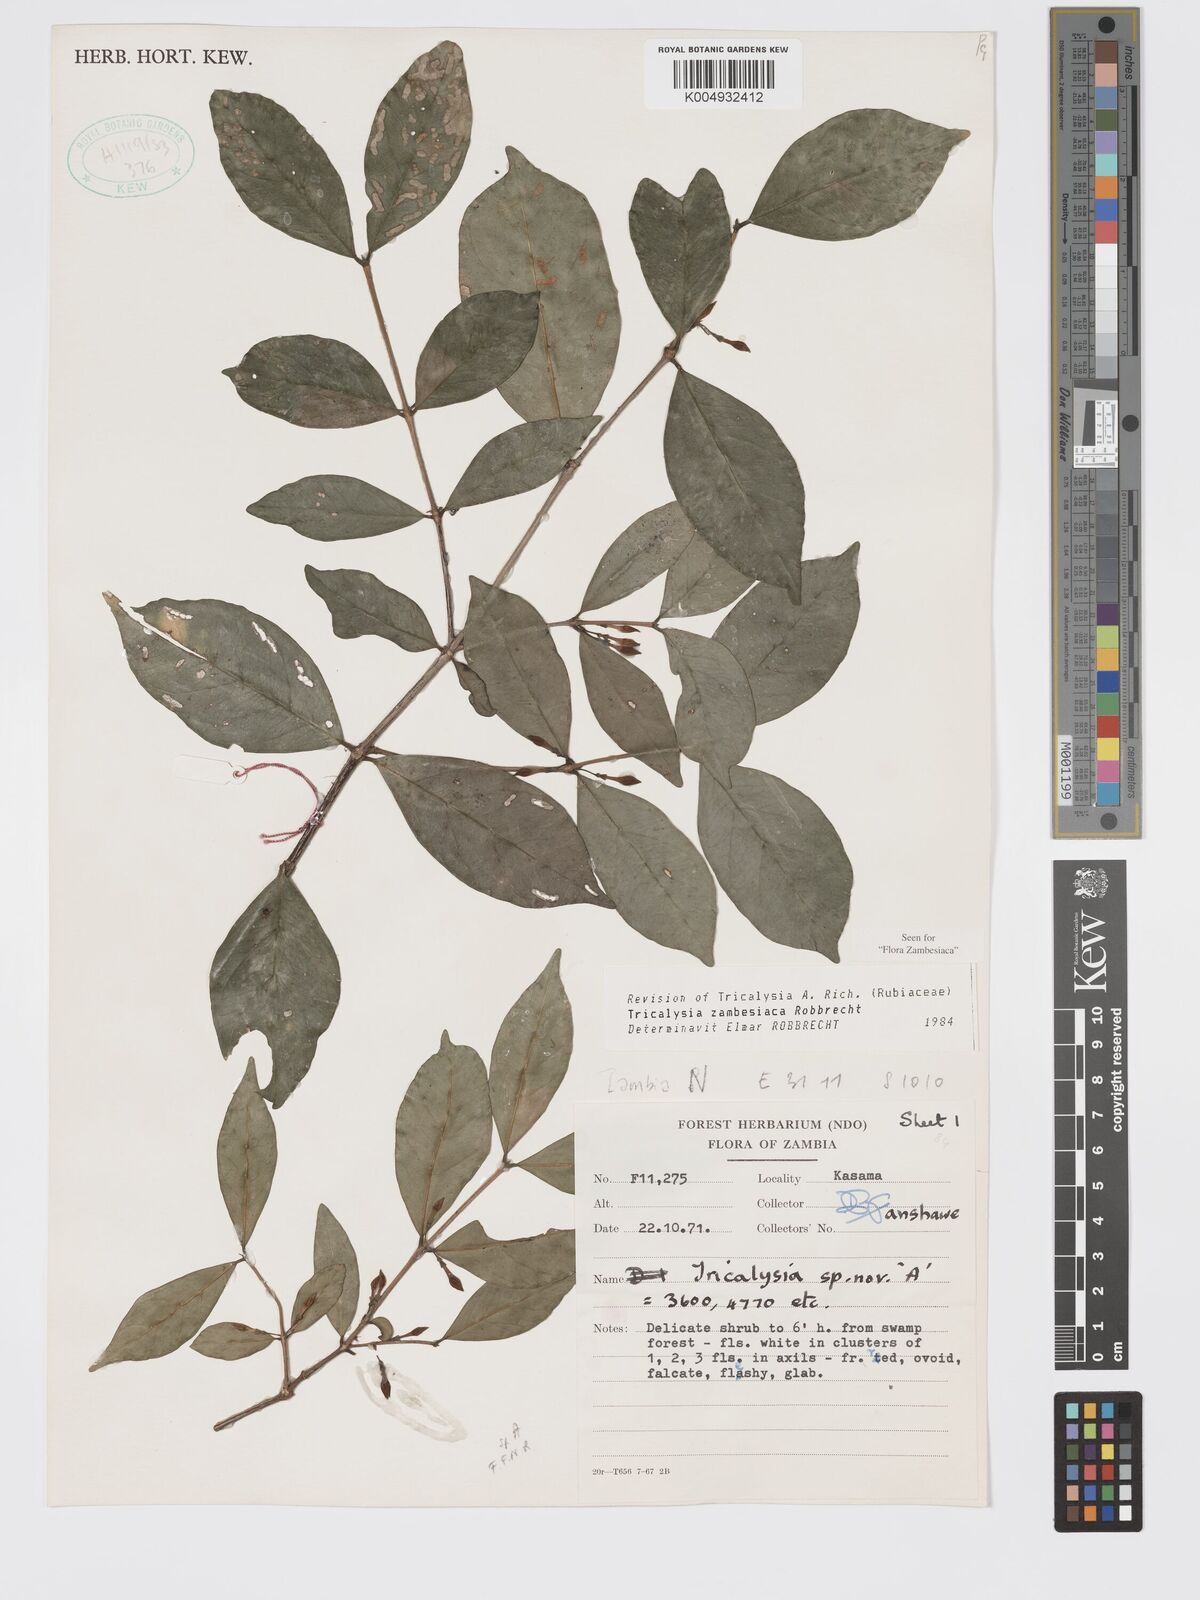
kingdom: Plantae
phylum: Tracheophyta
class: Magnoliopsida
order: Gentianales
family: Rubiaceae
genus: Tricalysia
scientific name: Tricalysia
